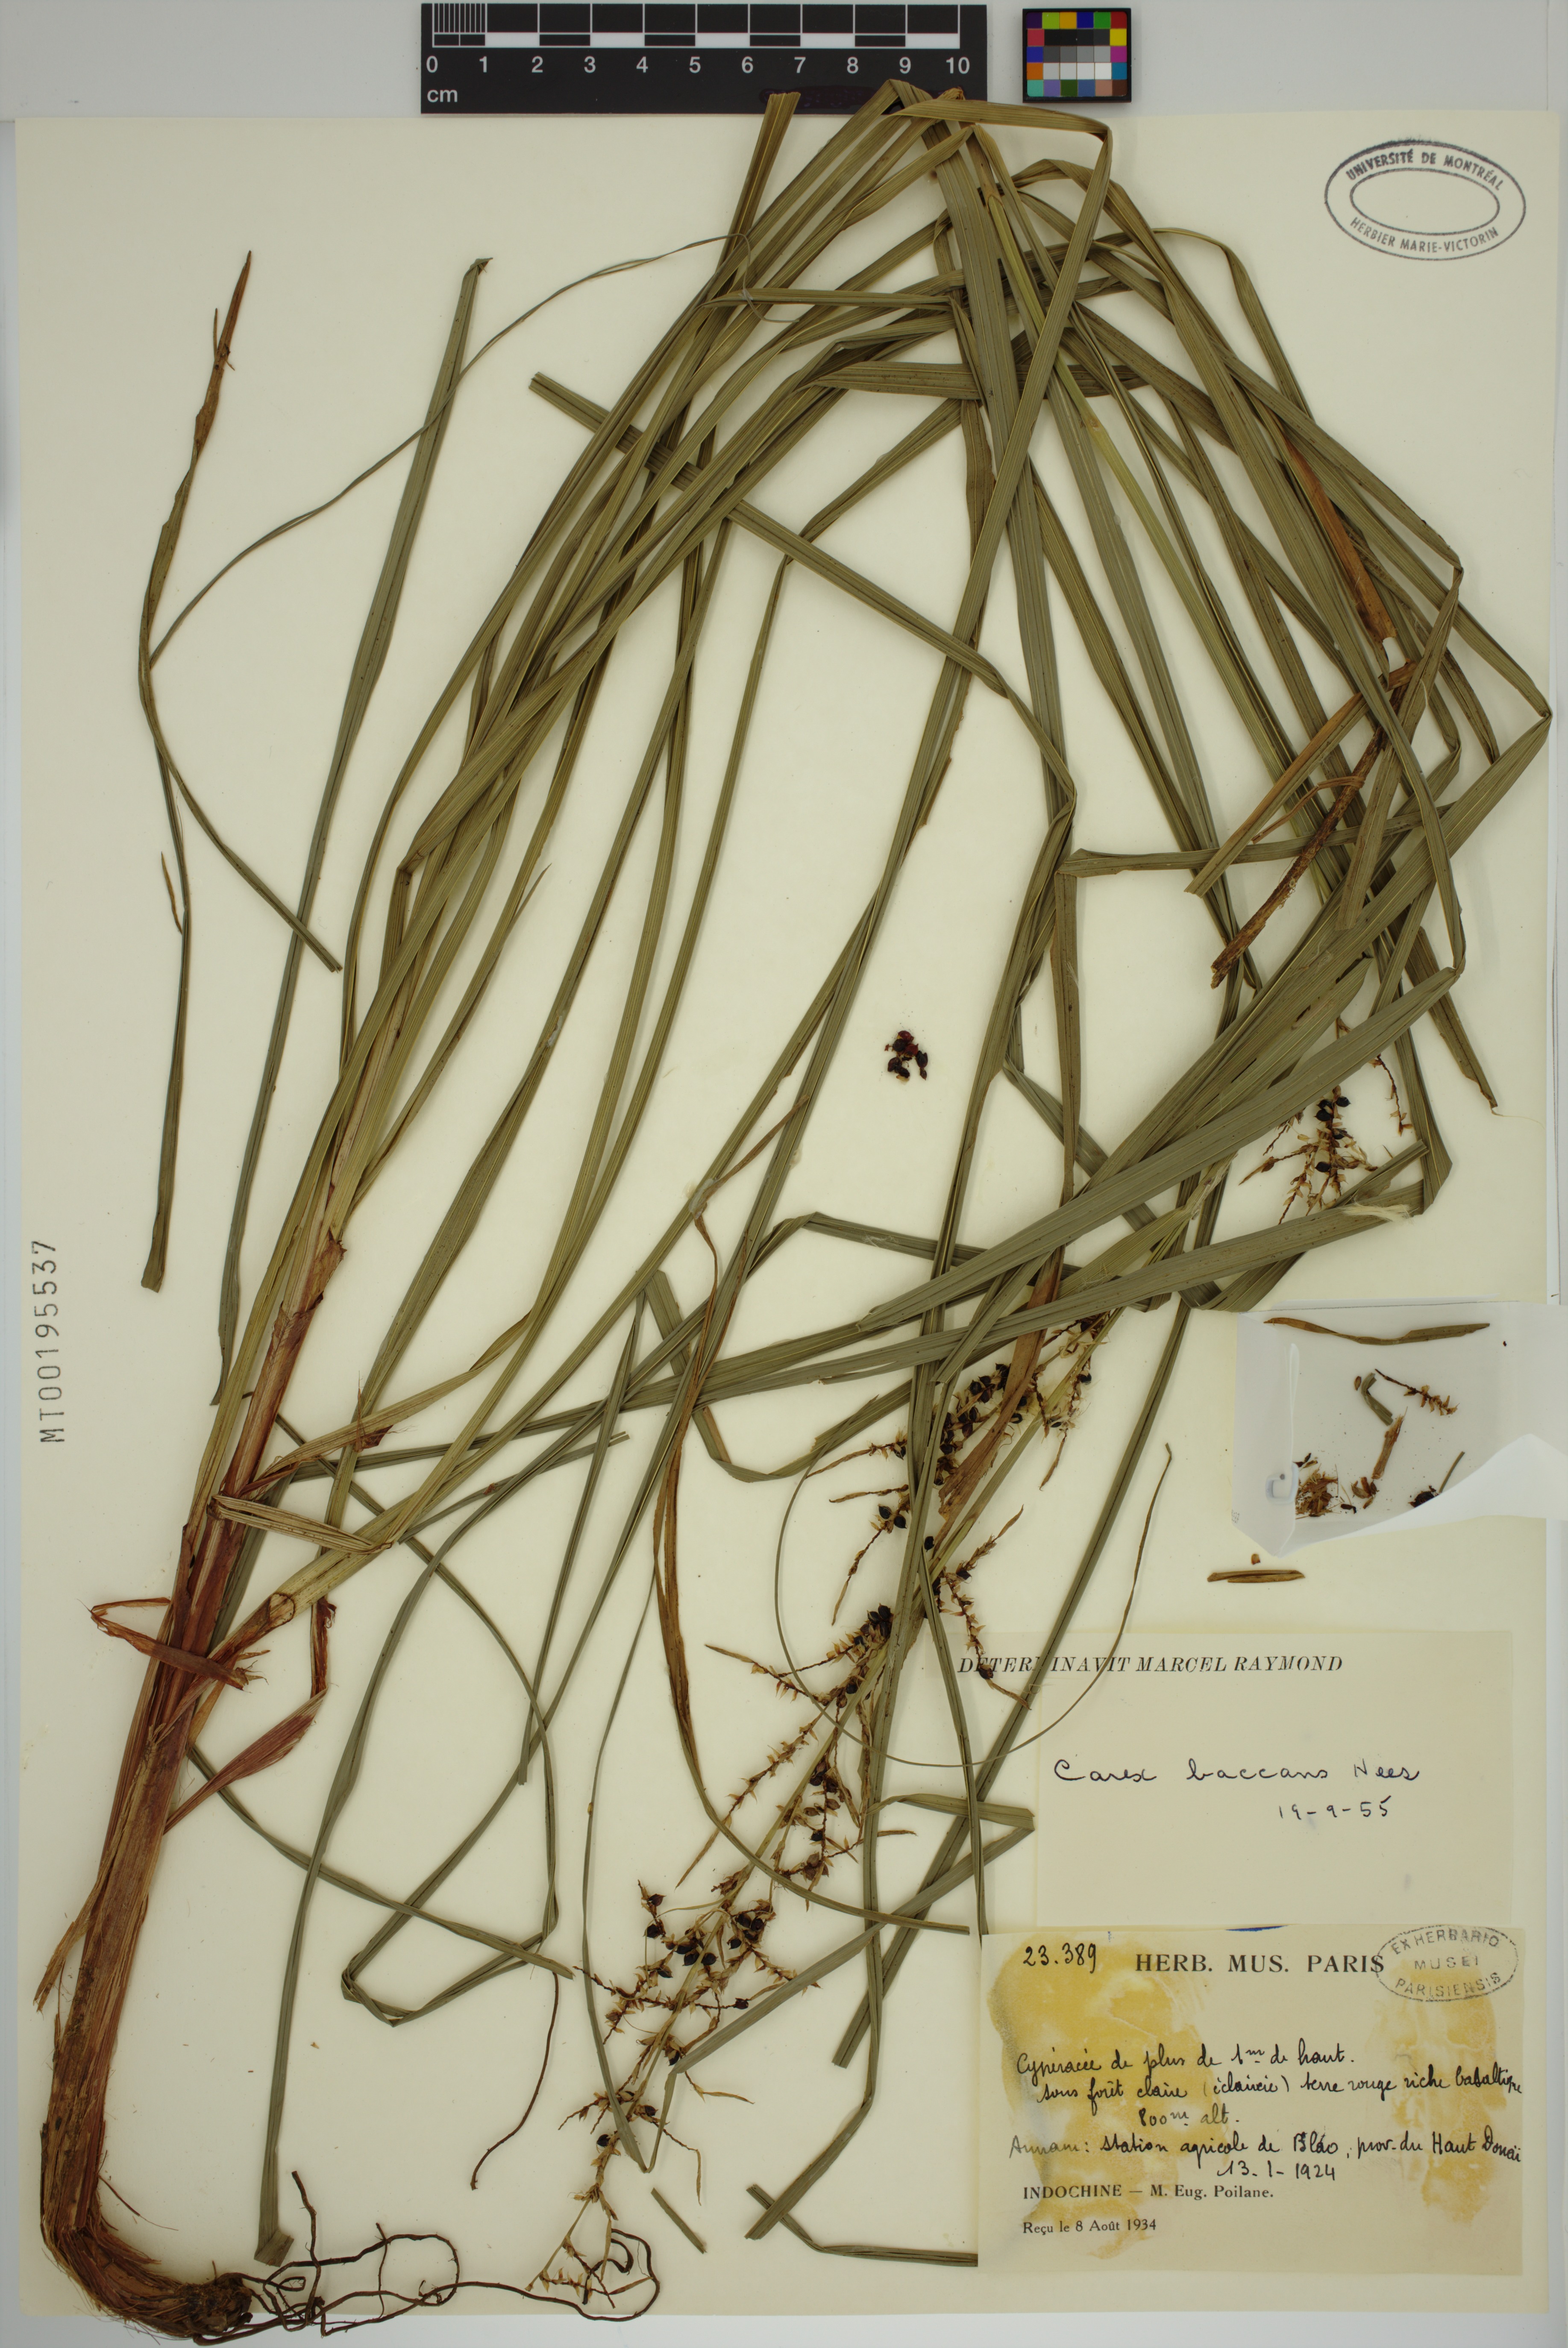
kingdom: Plantae
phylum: Tracheophyta
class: Liliopsida
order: Poales
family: Cyperaceae
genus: Carex
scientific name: Carex baccans
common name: Crimson seeded sedge
